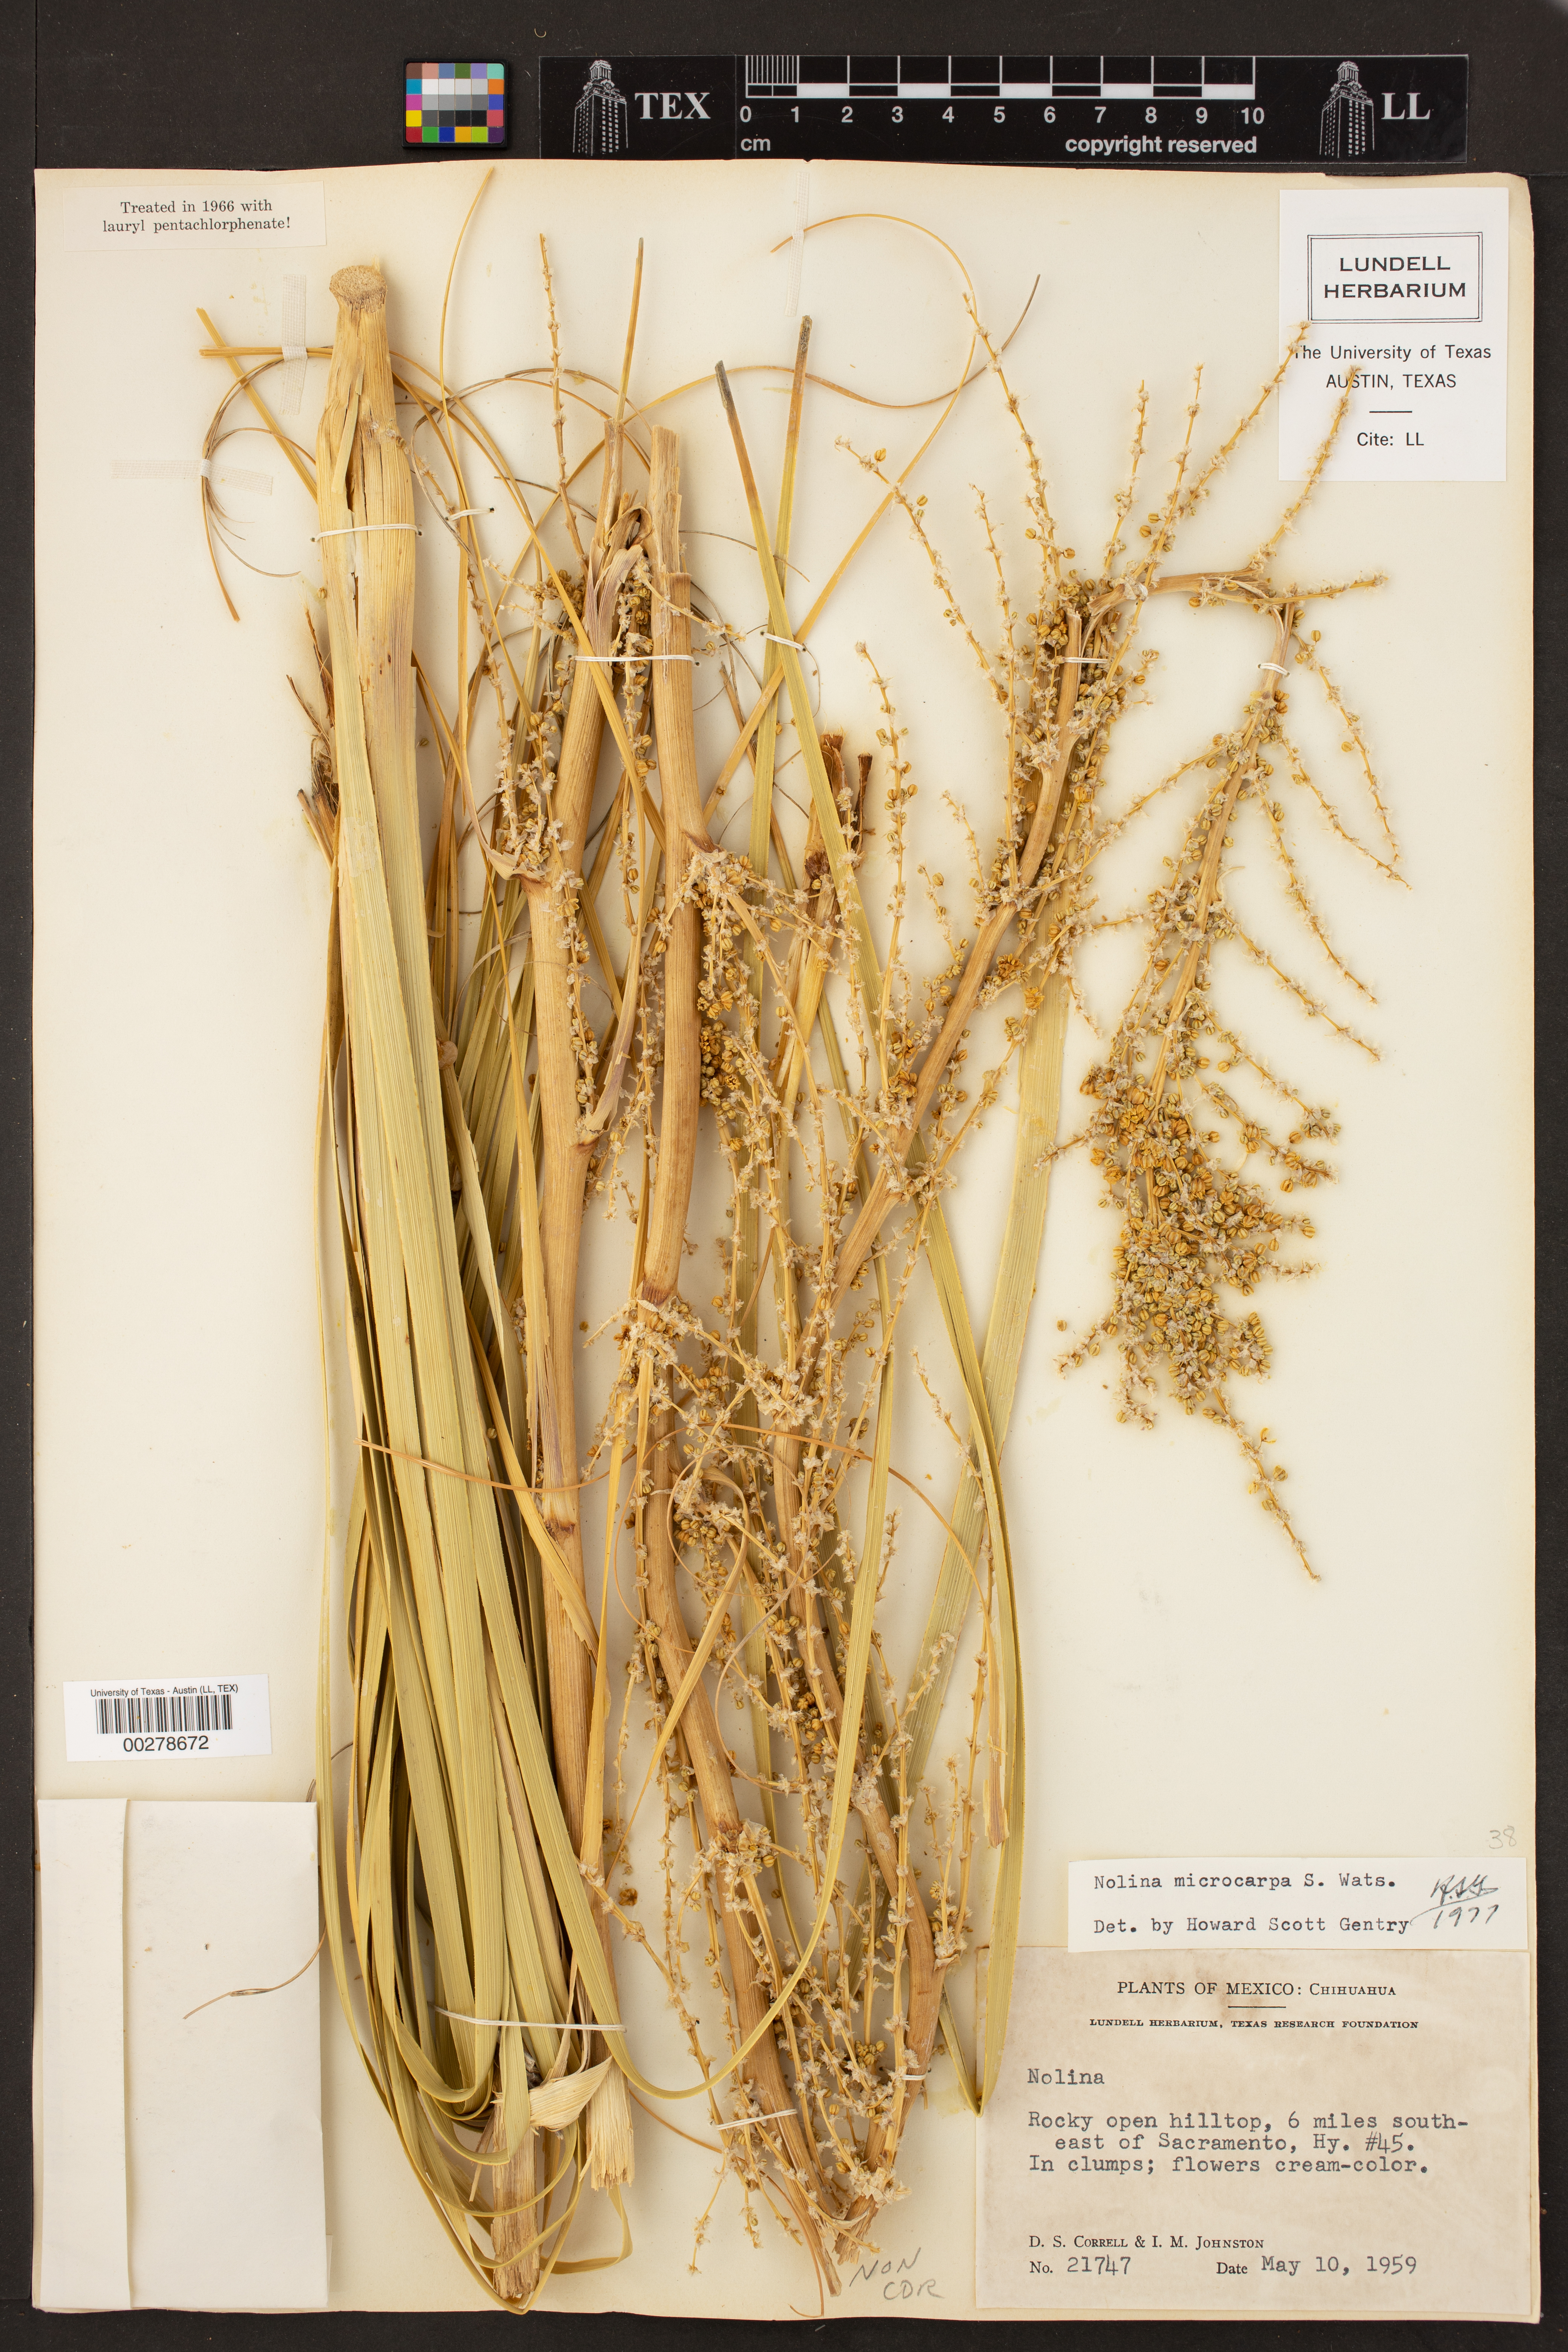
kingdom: Plantae
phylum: Tracheophyta
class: Liliopsida
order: Asparagales
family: Asparagaceae
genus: Nolina
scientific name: Nolina microcarpa
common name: Bear-grass
